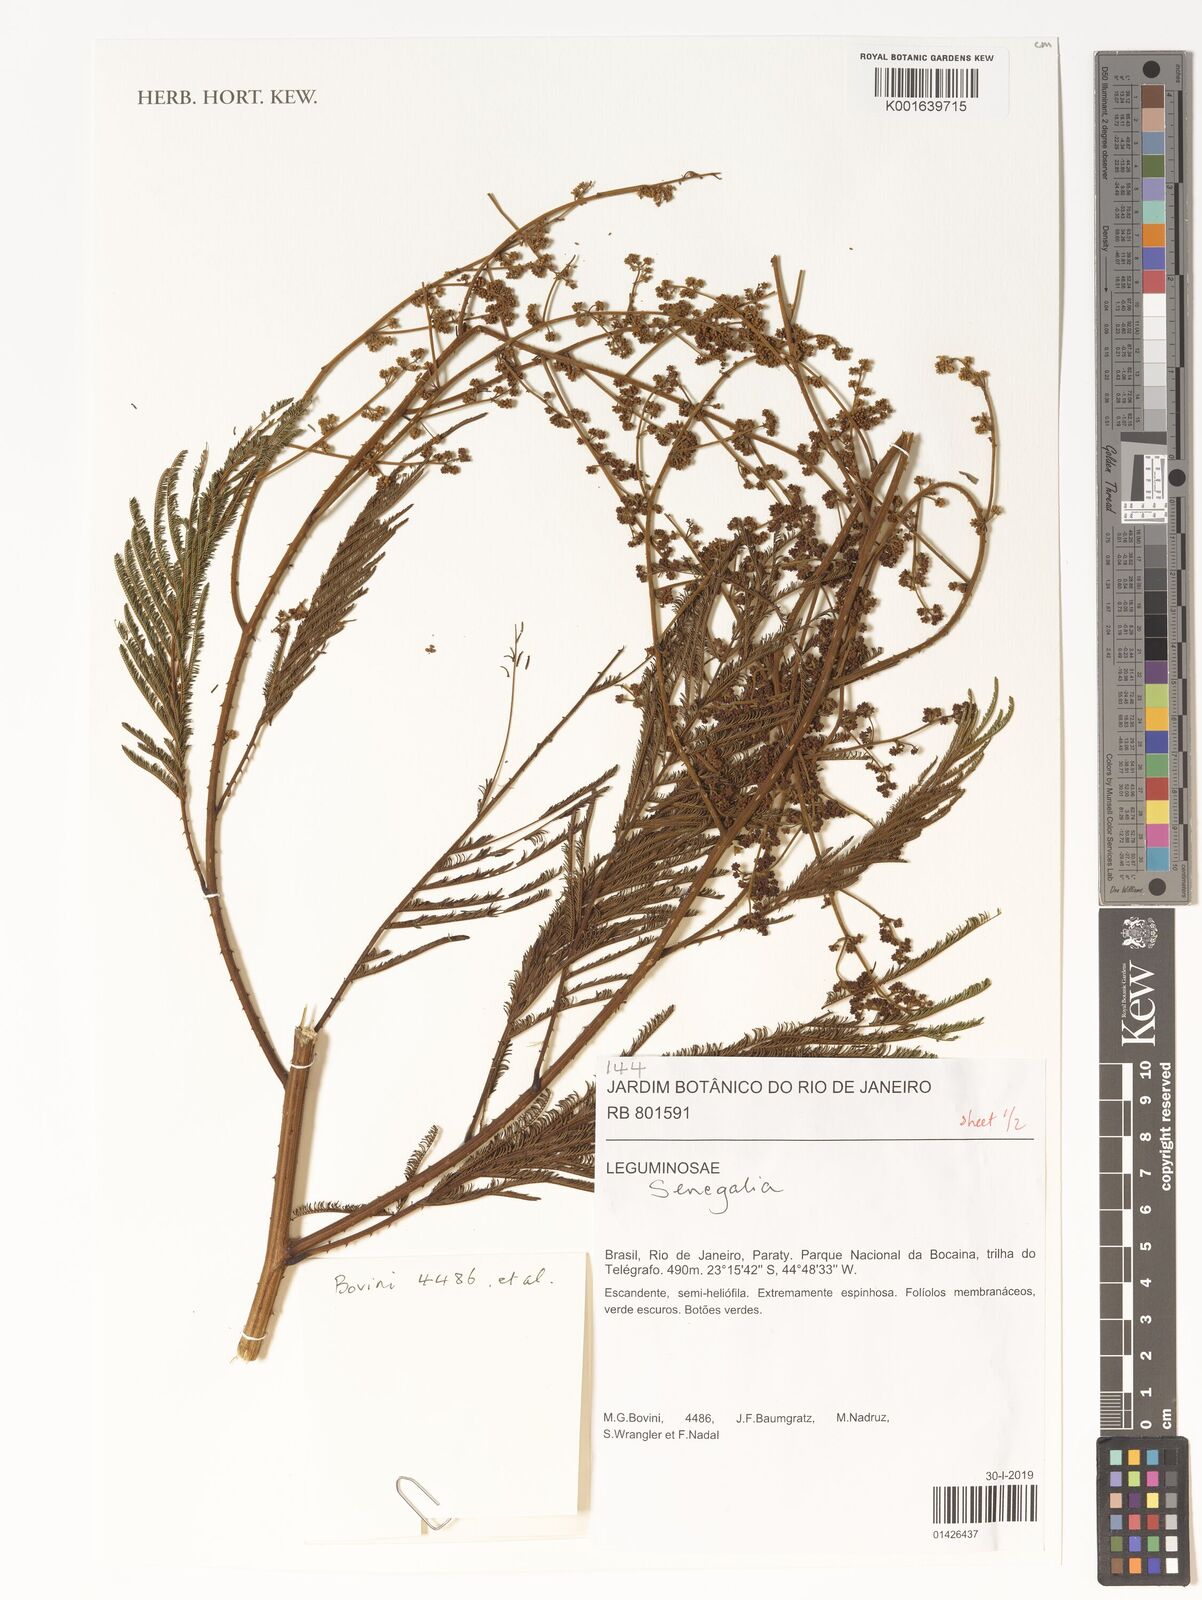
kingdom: Plantae
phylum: Tracheophyta
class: Magnoliopsida
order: Fabales
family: Fabaceae
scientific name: Fabaceae
